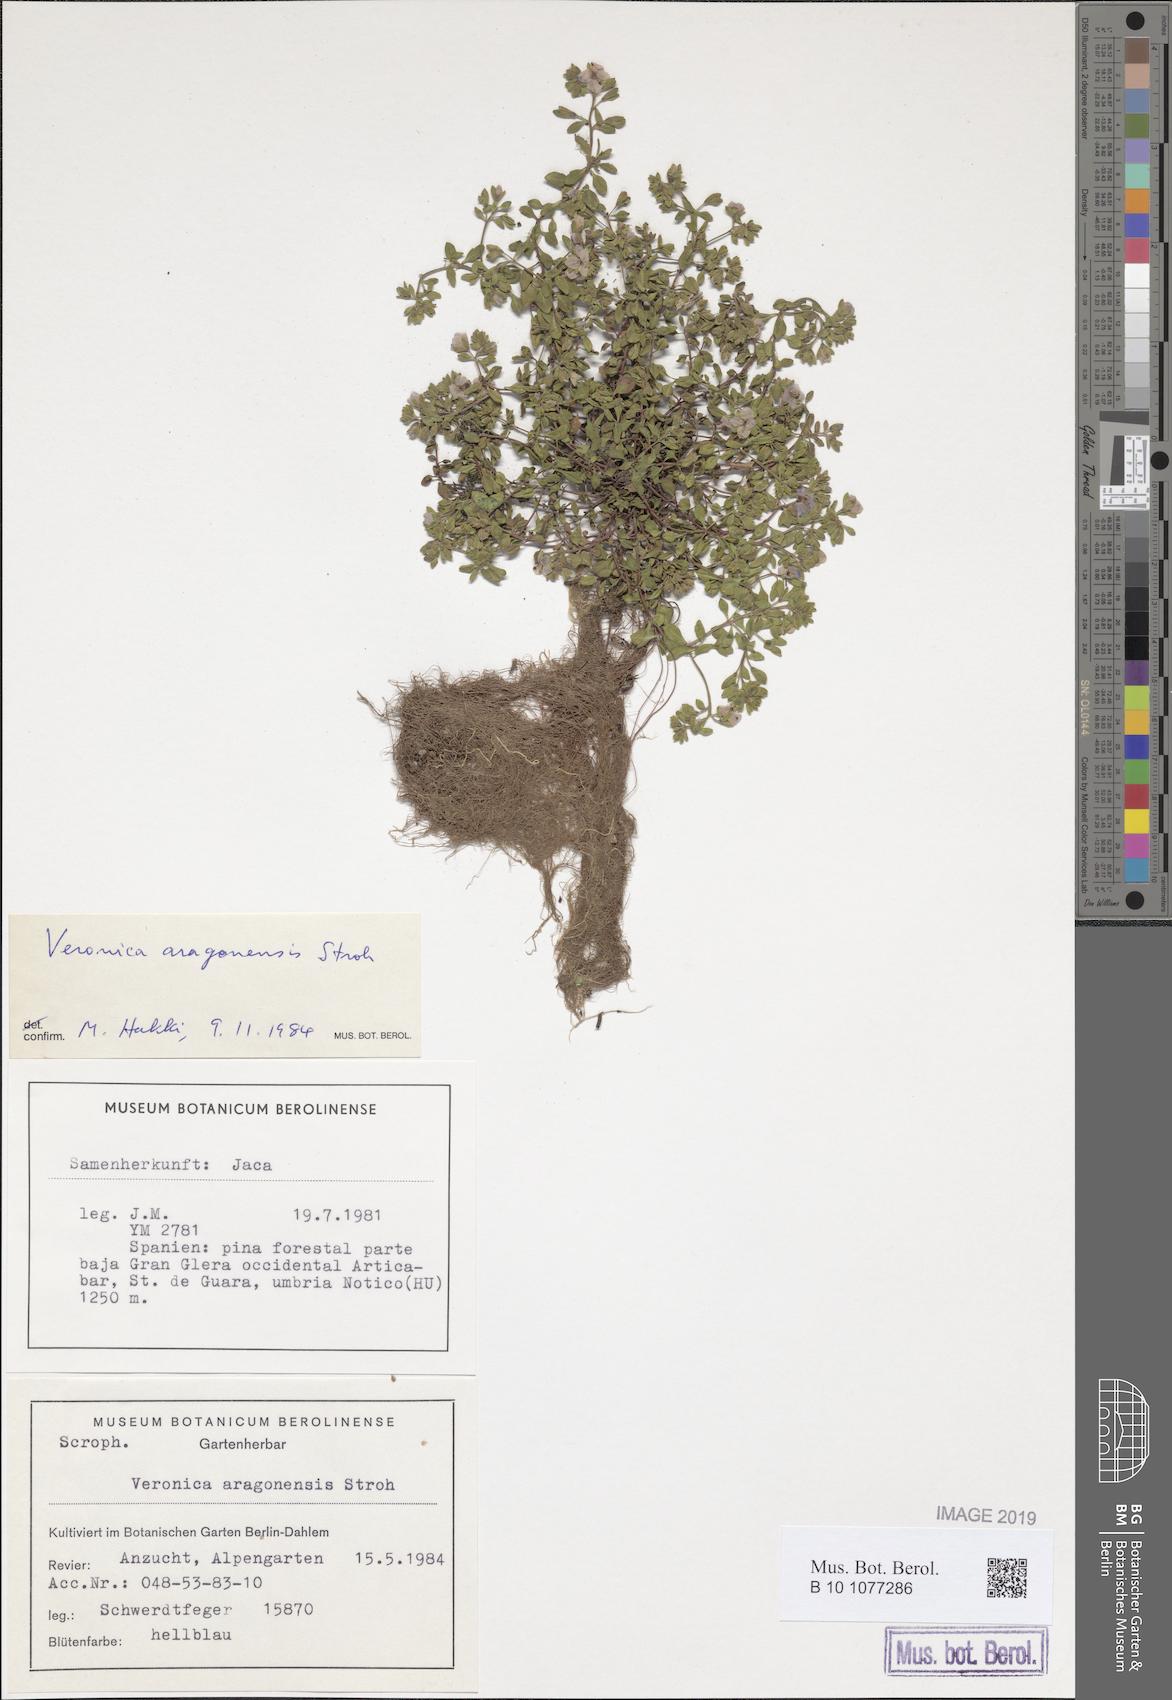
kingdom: Plantae
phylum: Tracheophyta
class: Magnoliopsida
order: Lamiales
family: Plantaginaceae
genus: Veronica
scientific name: Veronica aragonensis
